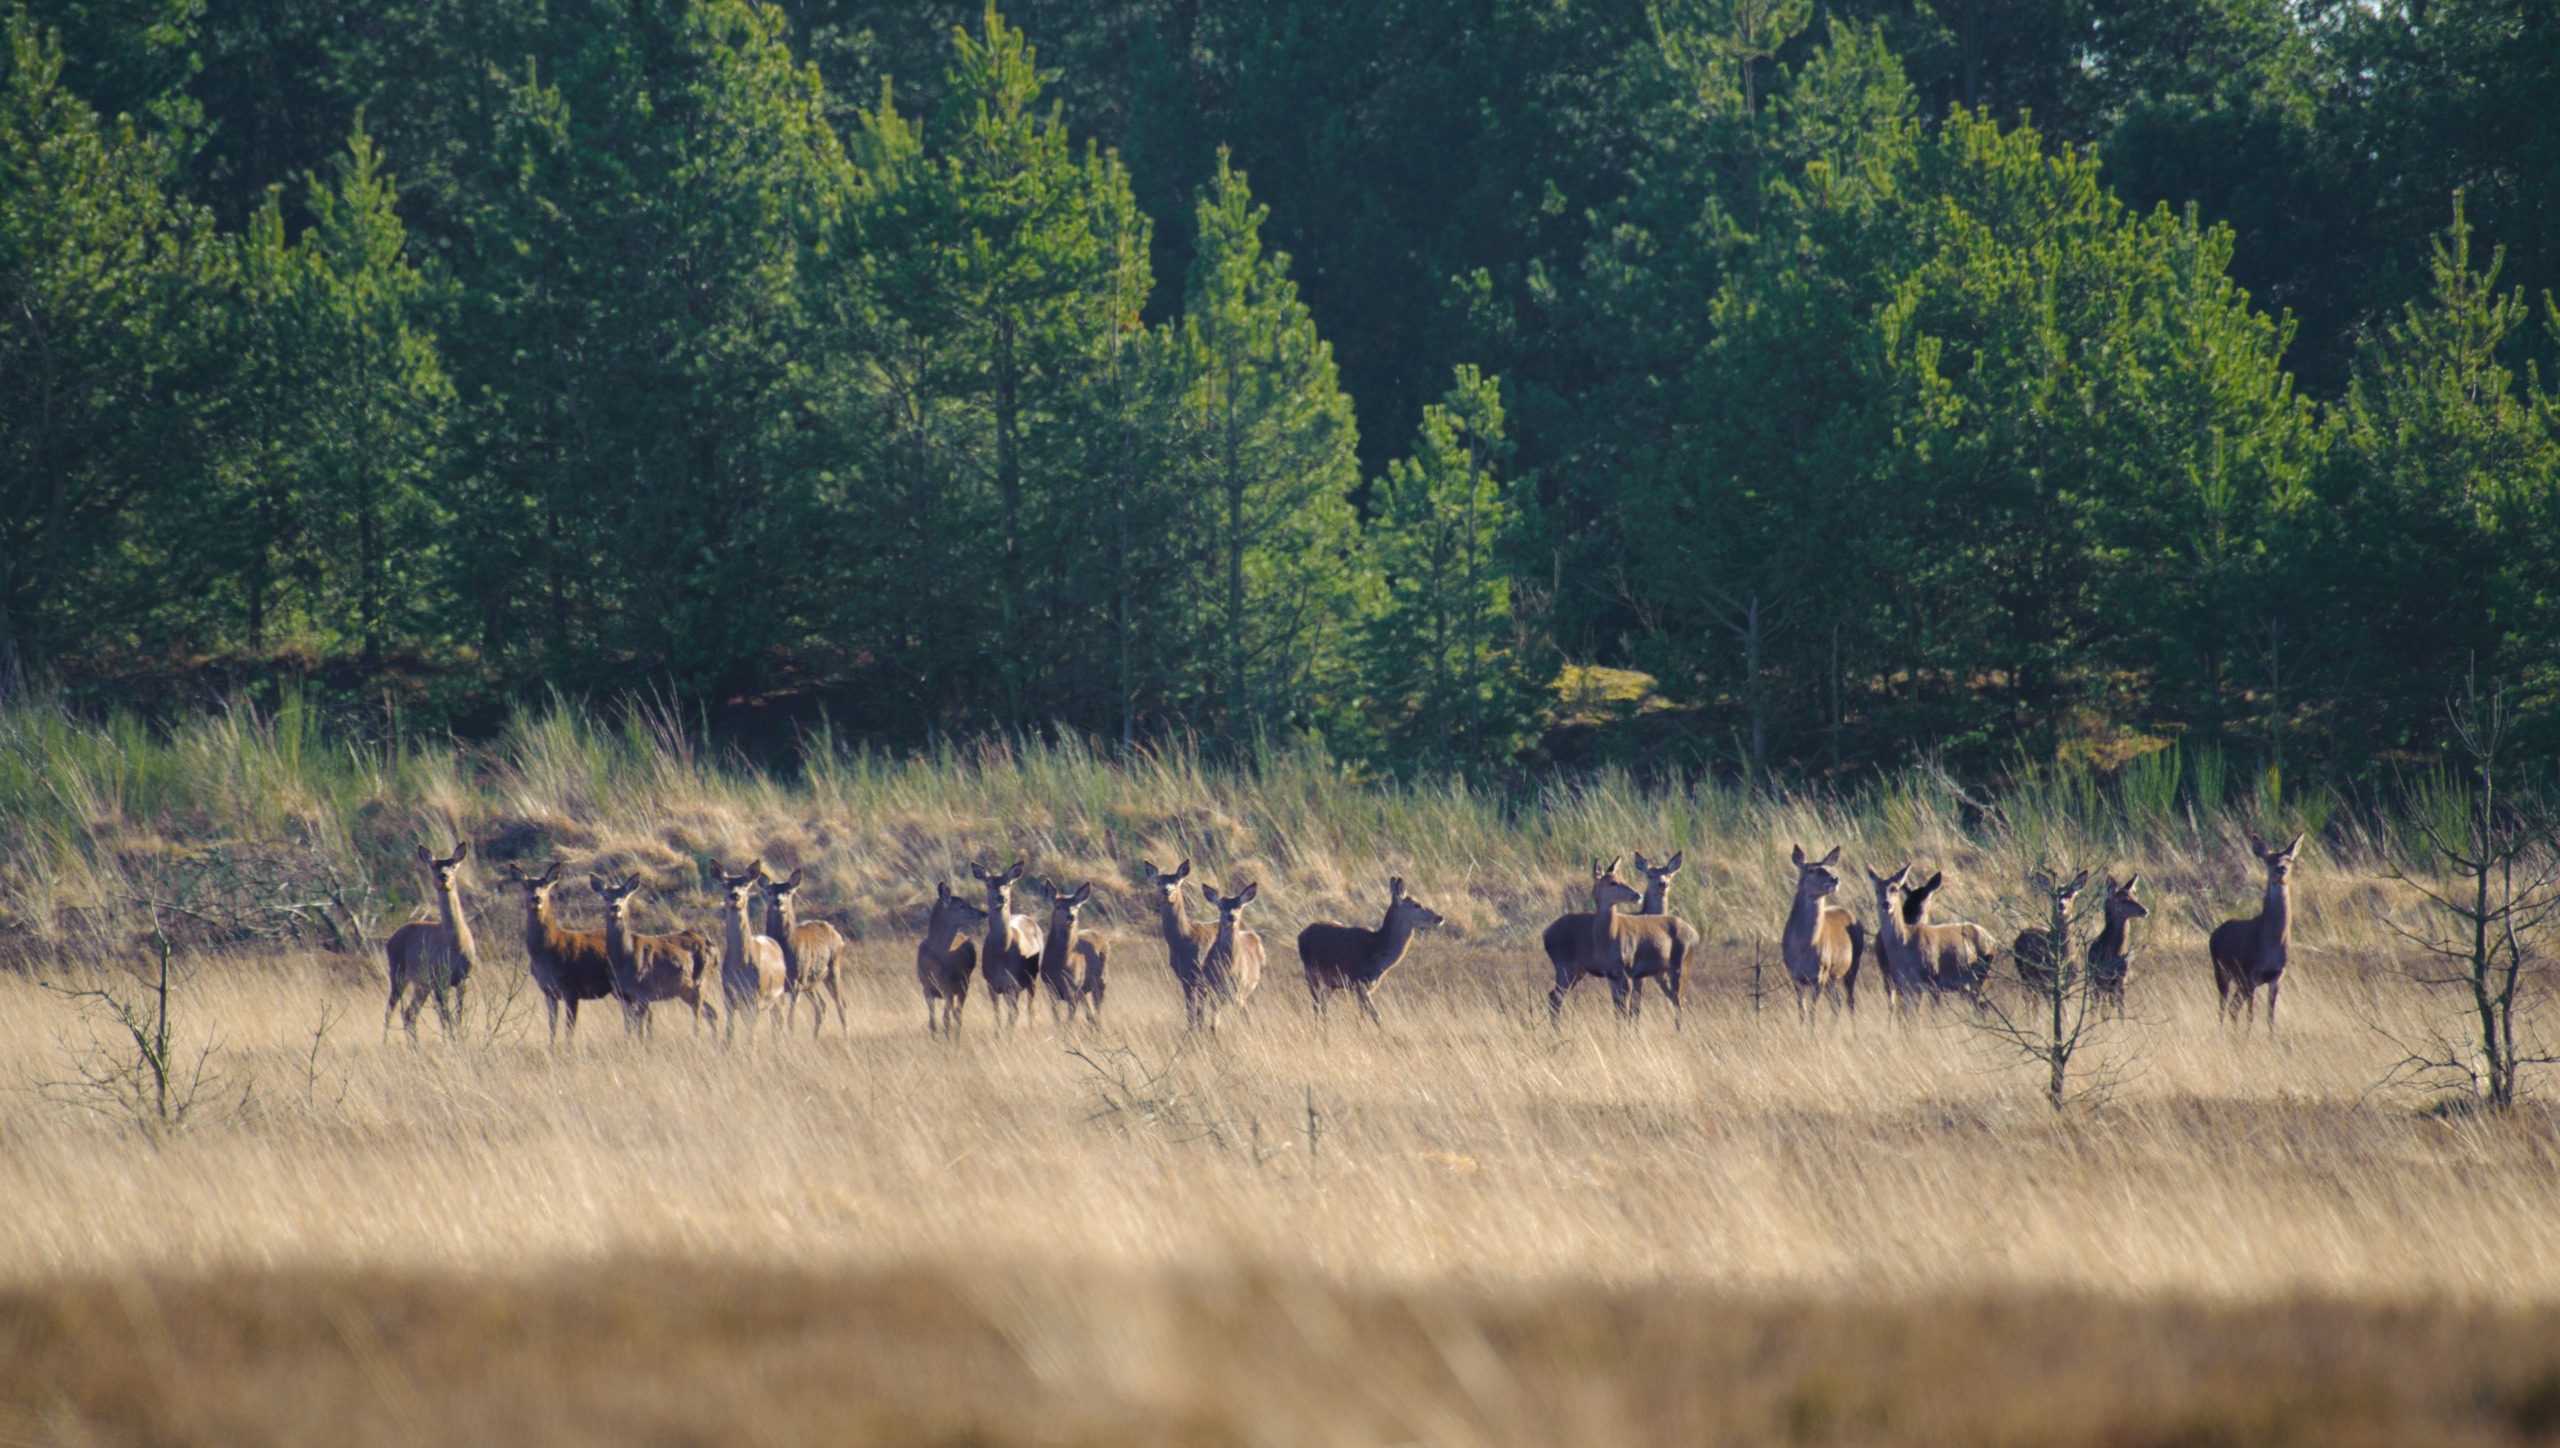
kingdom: Animalia
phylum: Chordata
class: Mammalia
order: Artiodactyla
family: Cervidae
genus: Cervus
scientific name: Cervus elaphus
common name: Krondyr
